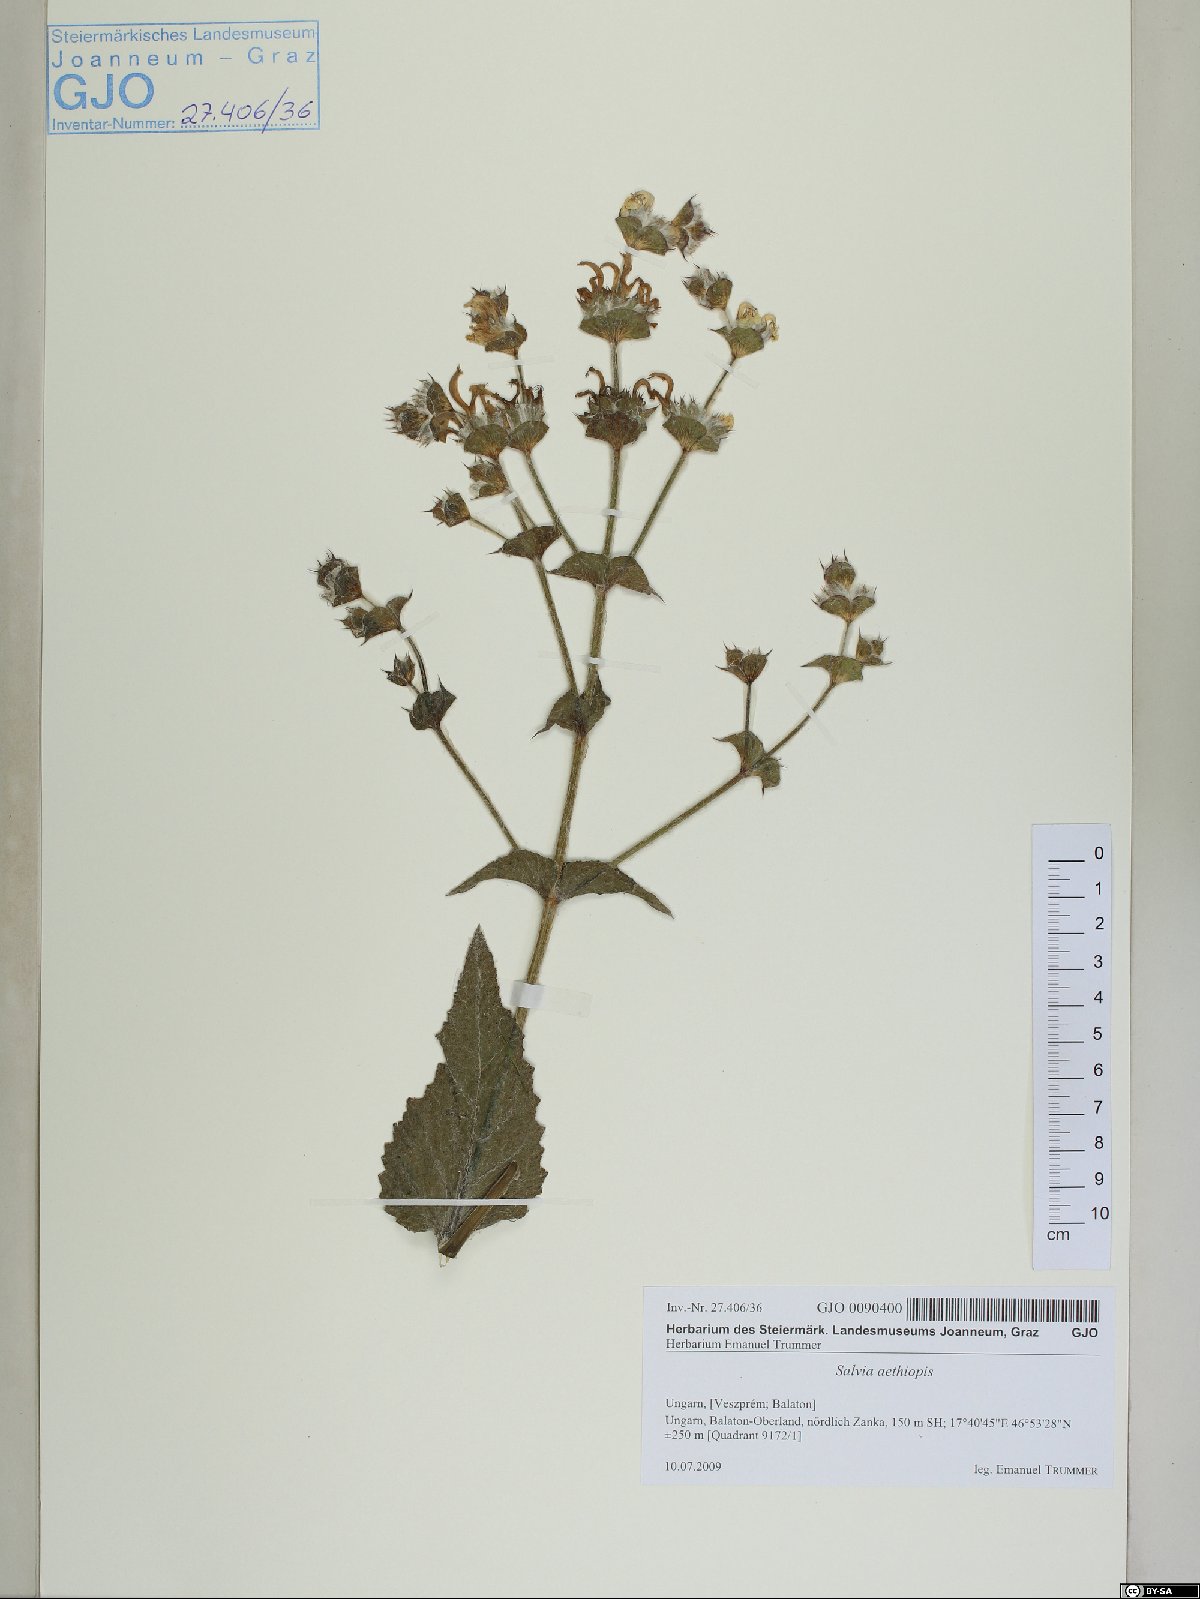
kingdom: Plantae
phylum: Tracheophyta
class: Magnoliopsida
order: Lamiales
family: Lamiaceae
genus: Salvia
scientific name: Salvia aethiopis
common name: Mediterranean sage
